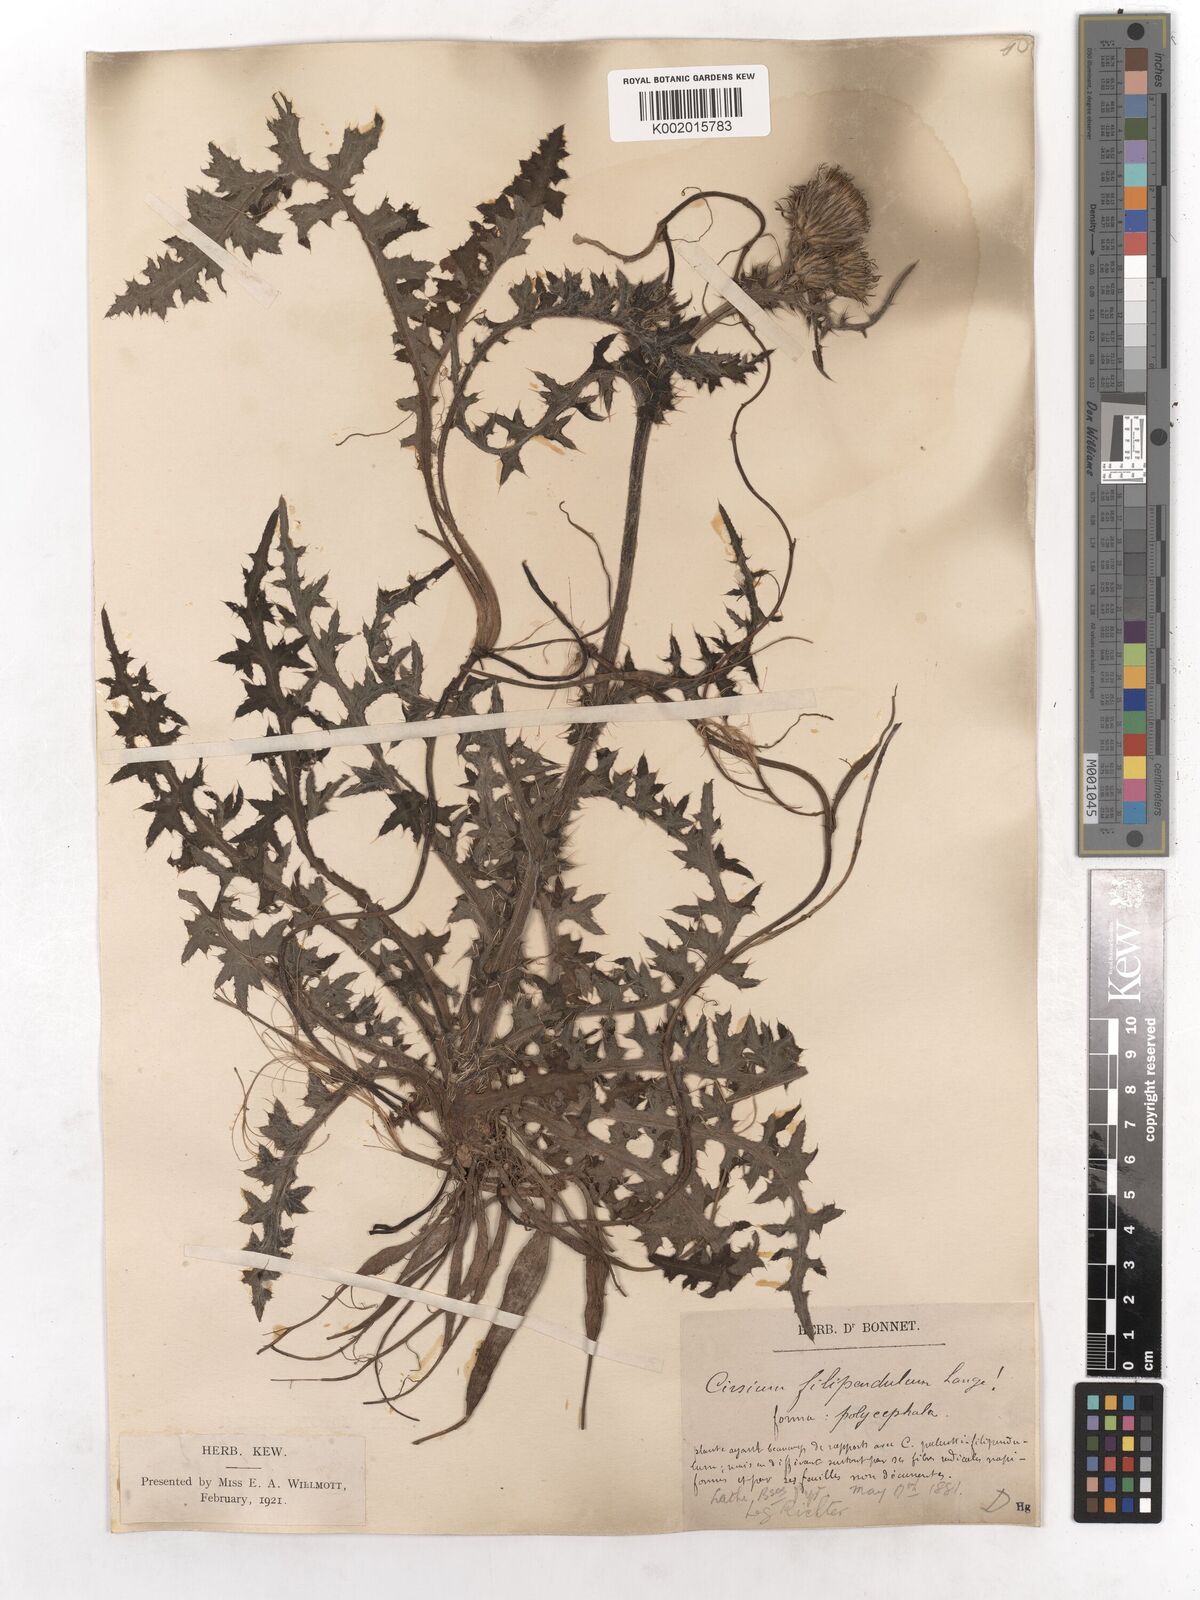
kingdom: Plantae
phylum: Tracheophyta
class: Magnoliopsida
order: Asterales
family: Asteraceae
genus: Cirsium
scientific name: Cirsium filipendulum
